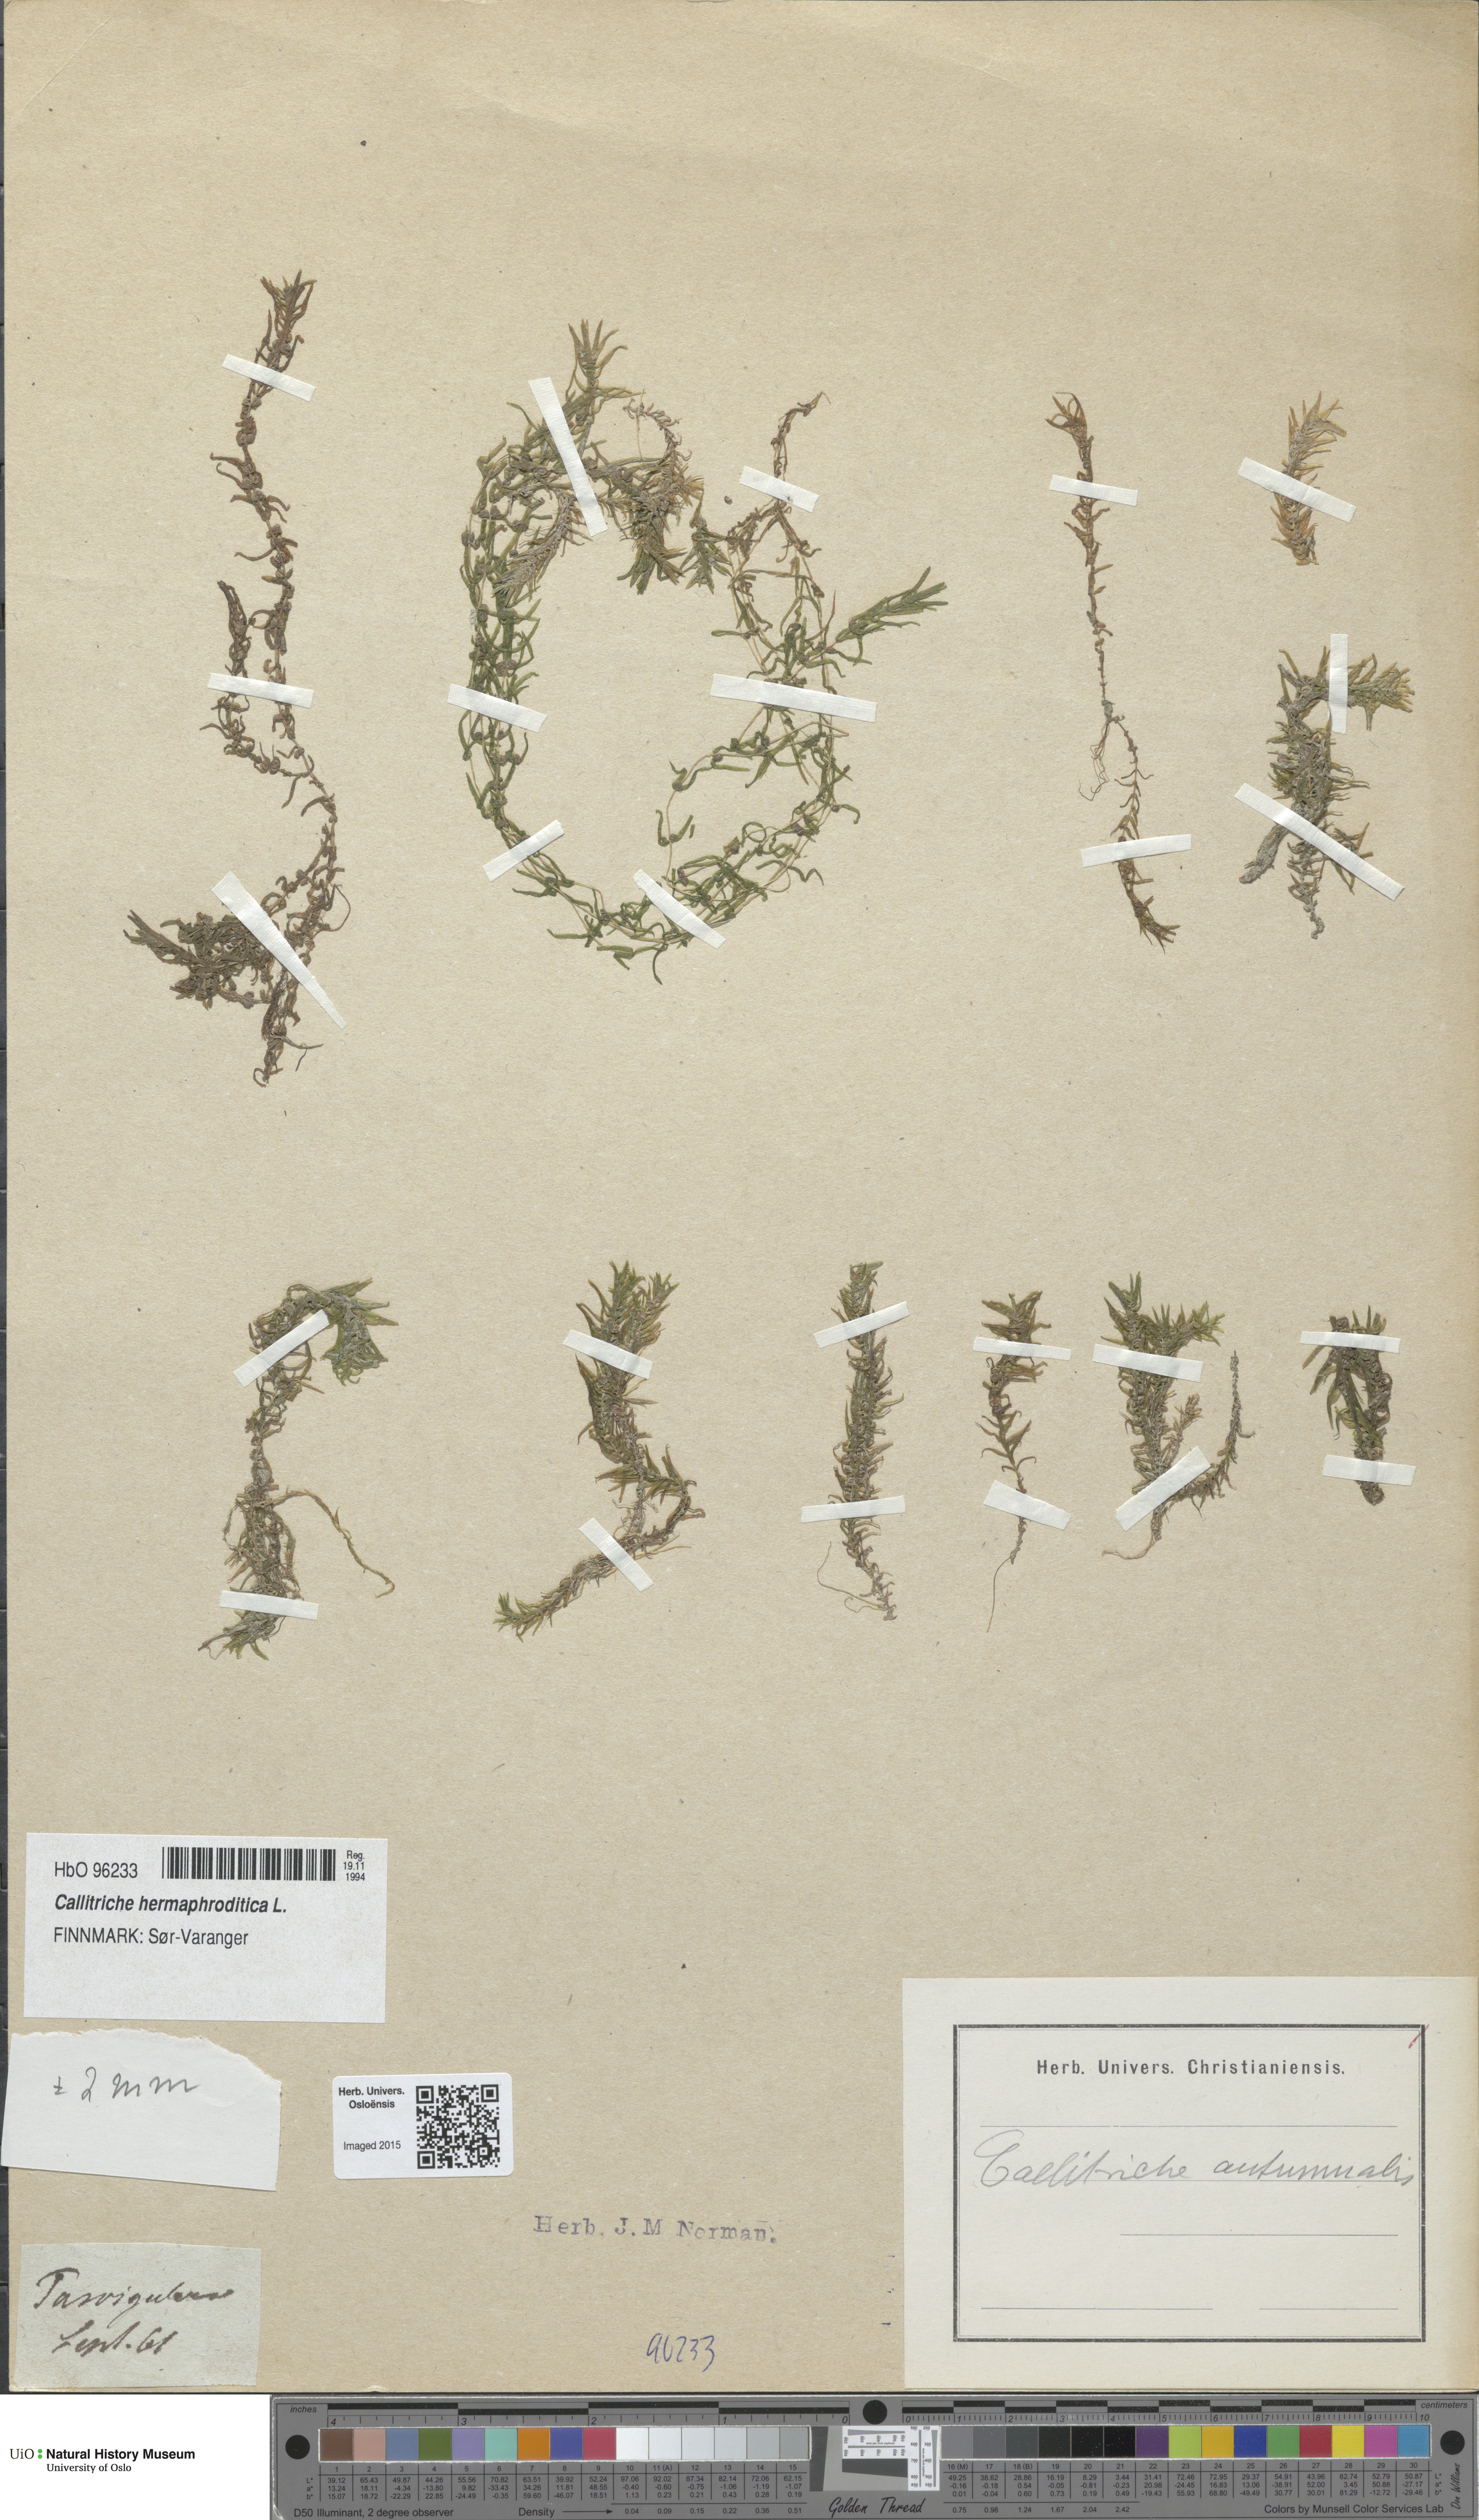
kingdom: Plantae
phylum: Tracheophyta
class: Magnoliopsida
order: Lamiales
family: Plantaginaceae
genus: Callitriche
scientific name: Callitriche hermaphroditica
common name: Autumnal water-starwort
